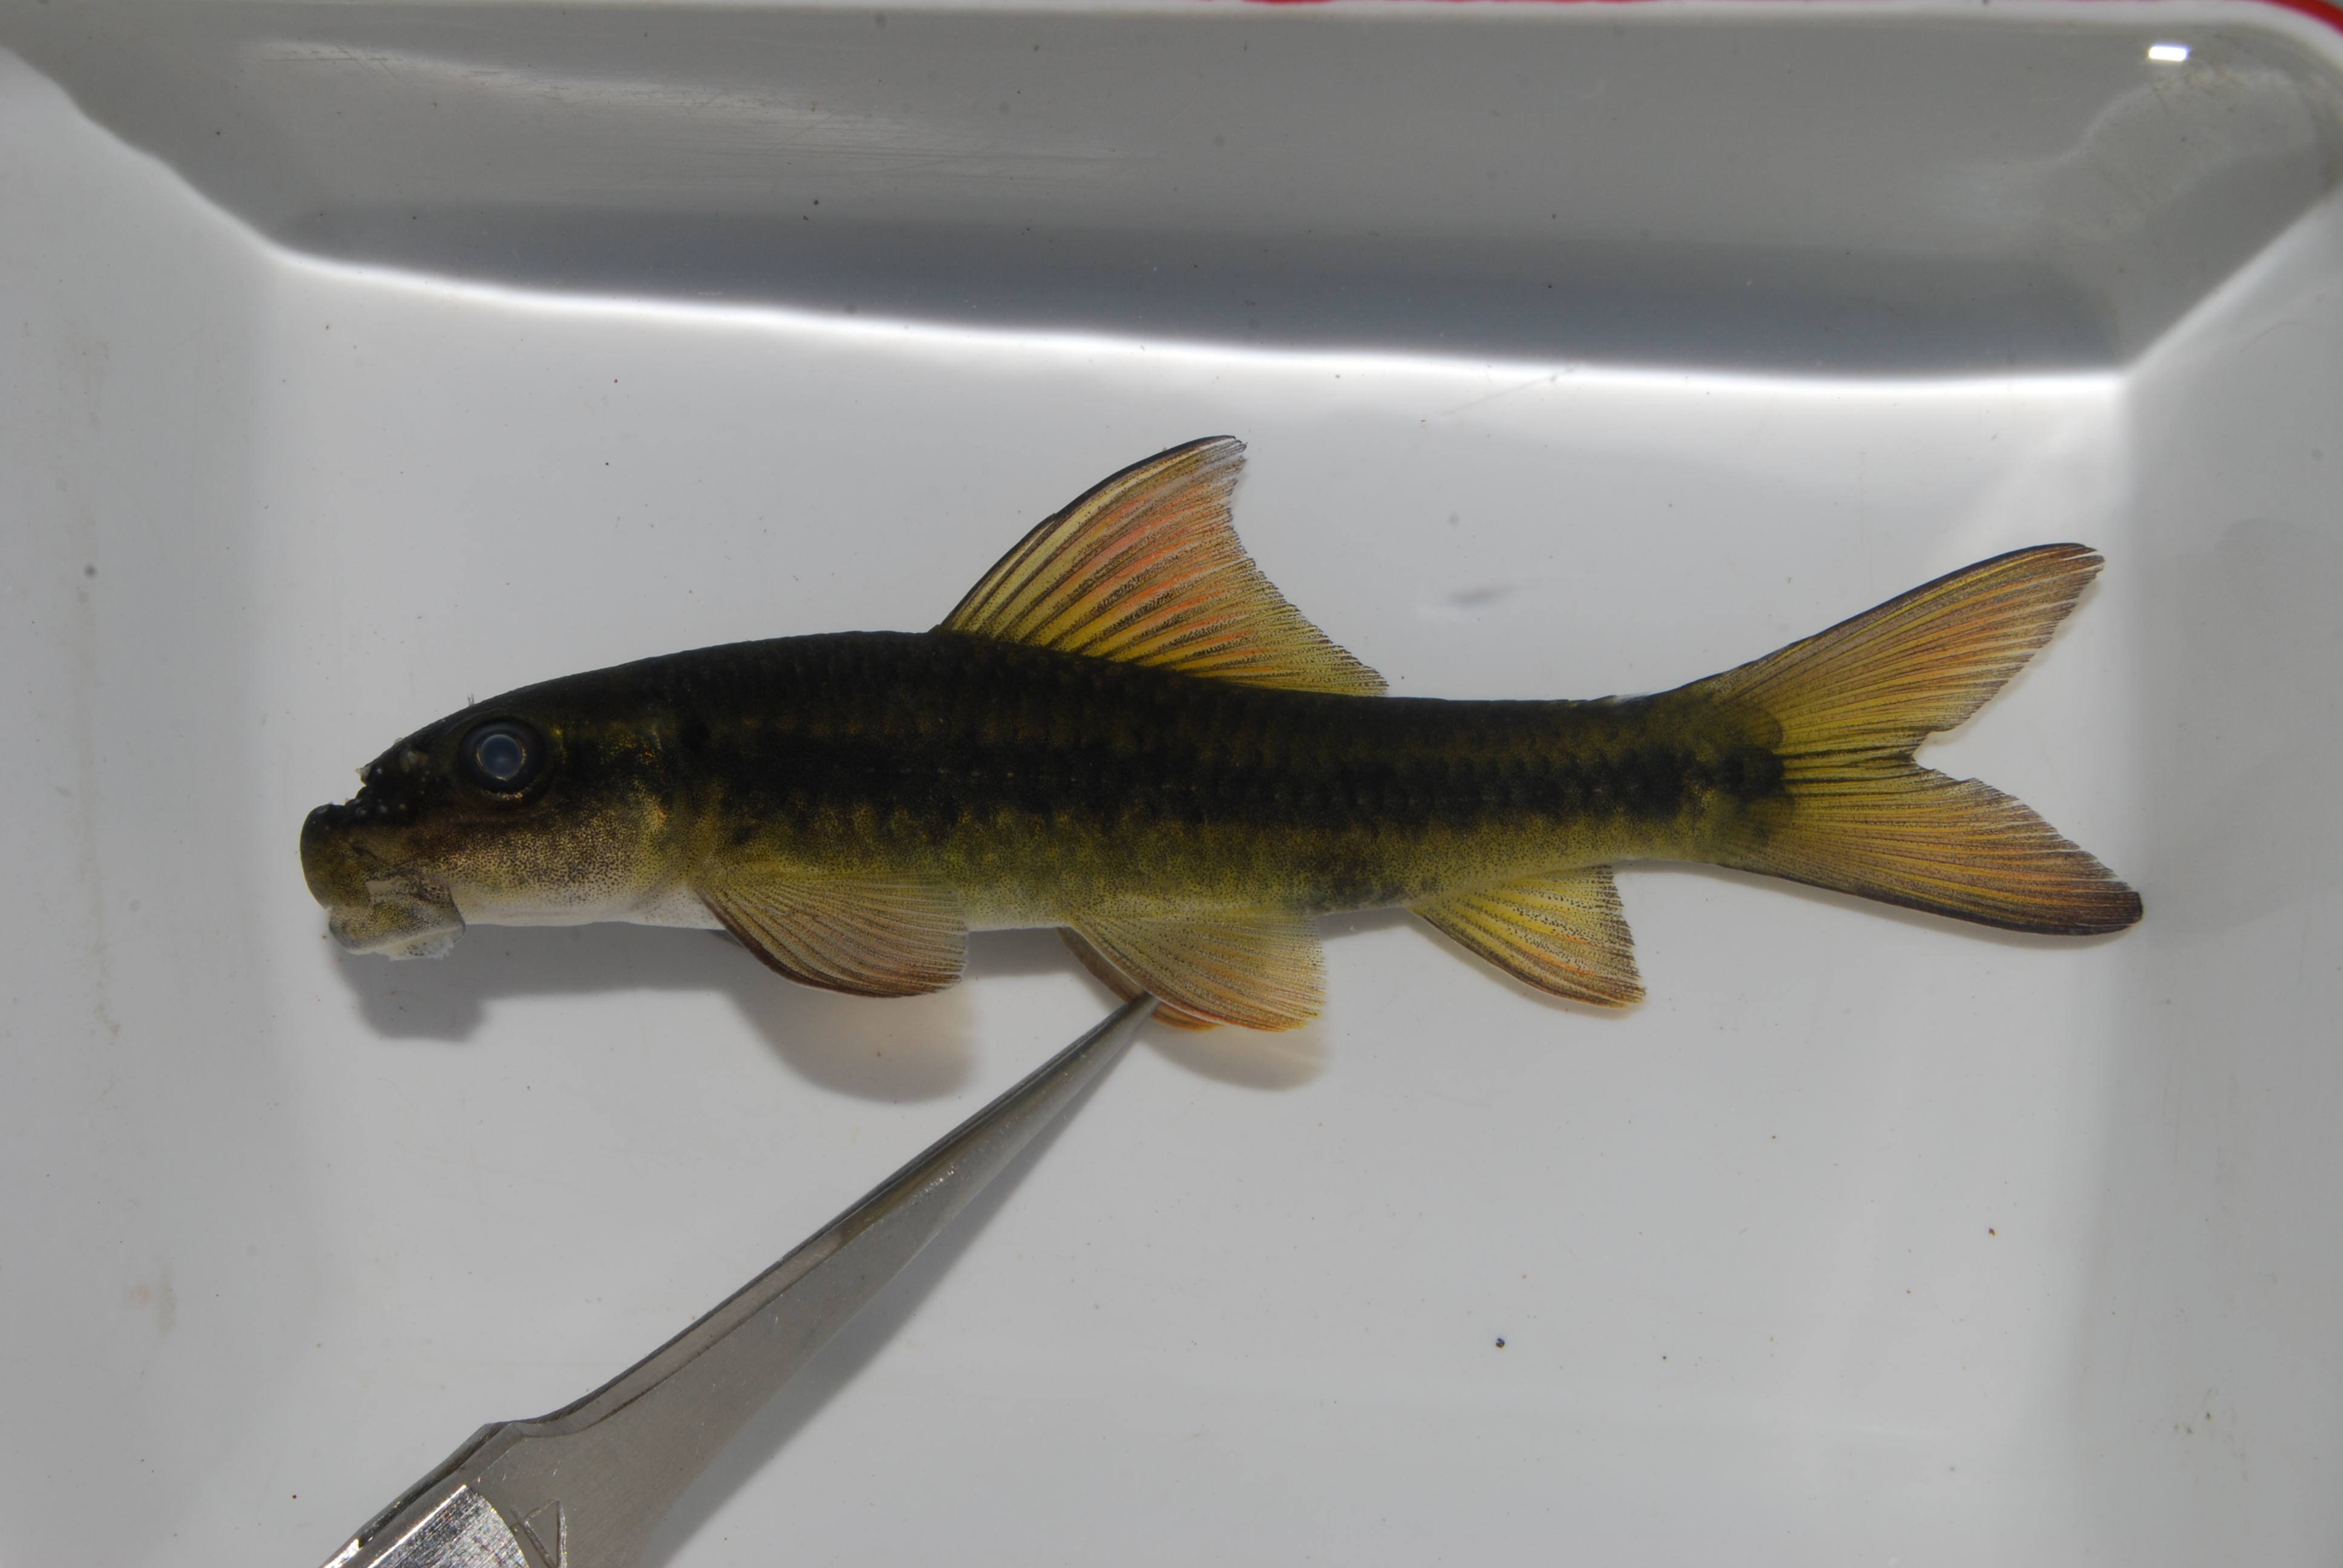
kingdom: Animalia
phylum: Chordata
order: Cypriniformes
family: Cyprinidae
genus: Labeo
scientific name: Labeo cylindricus
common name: Redeye labeo
